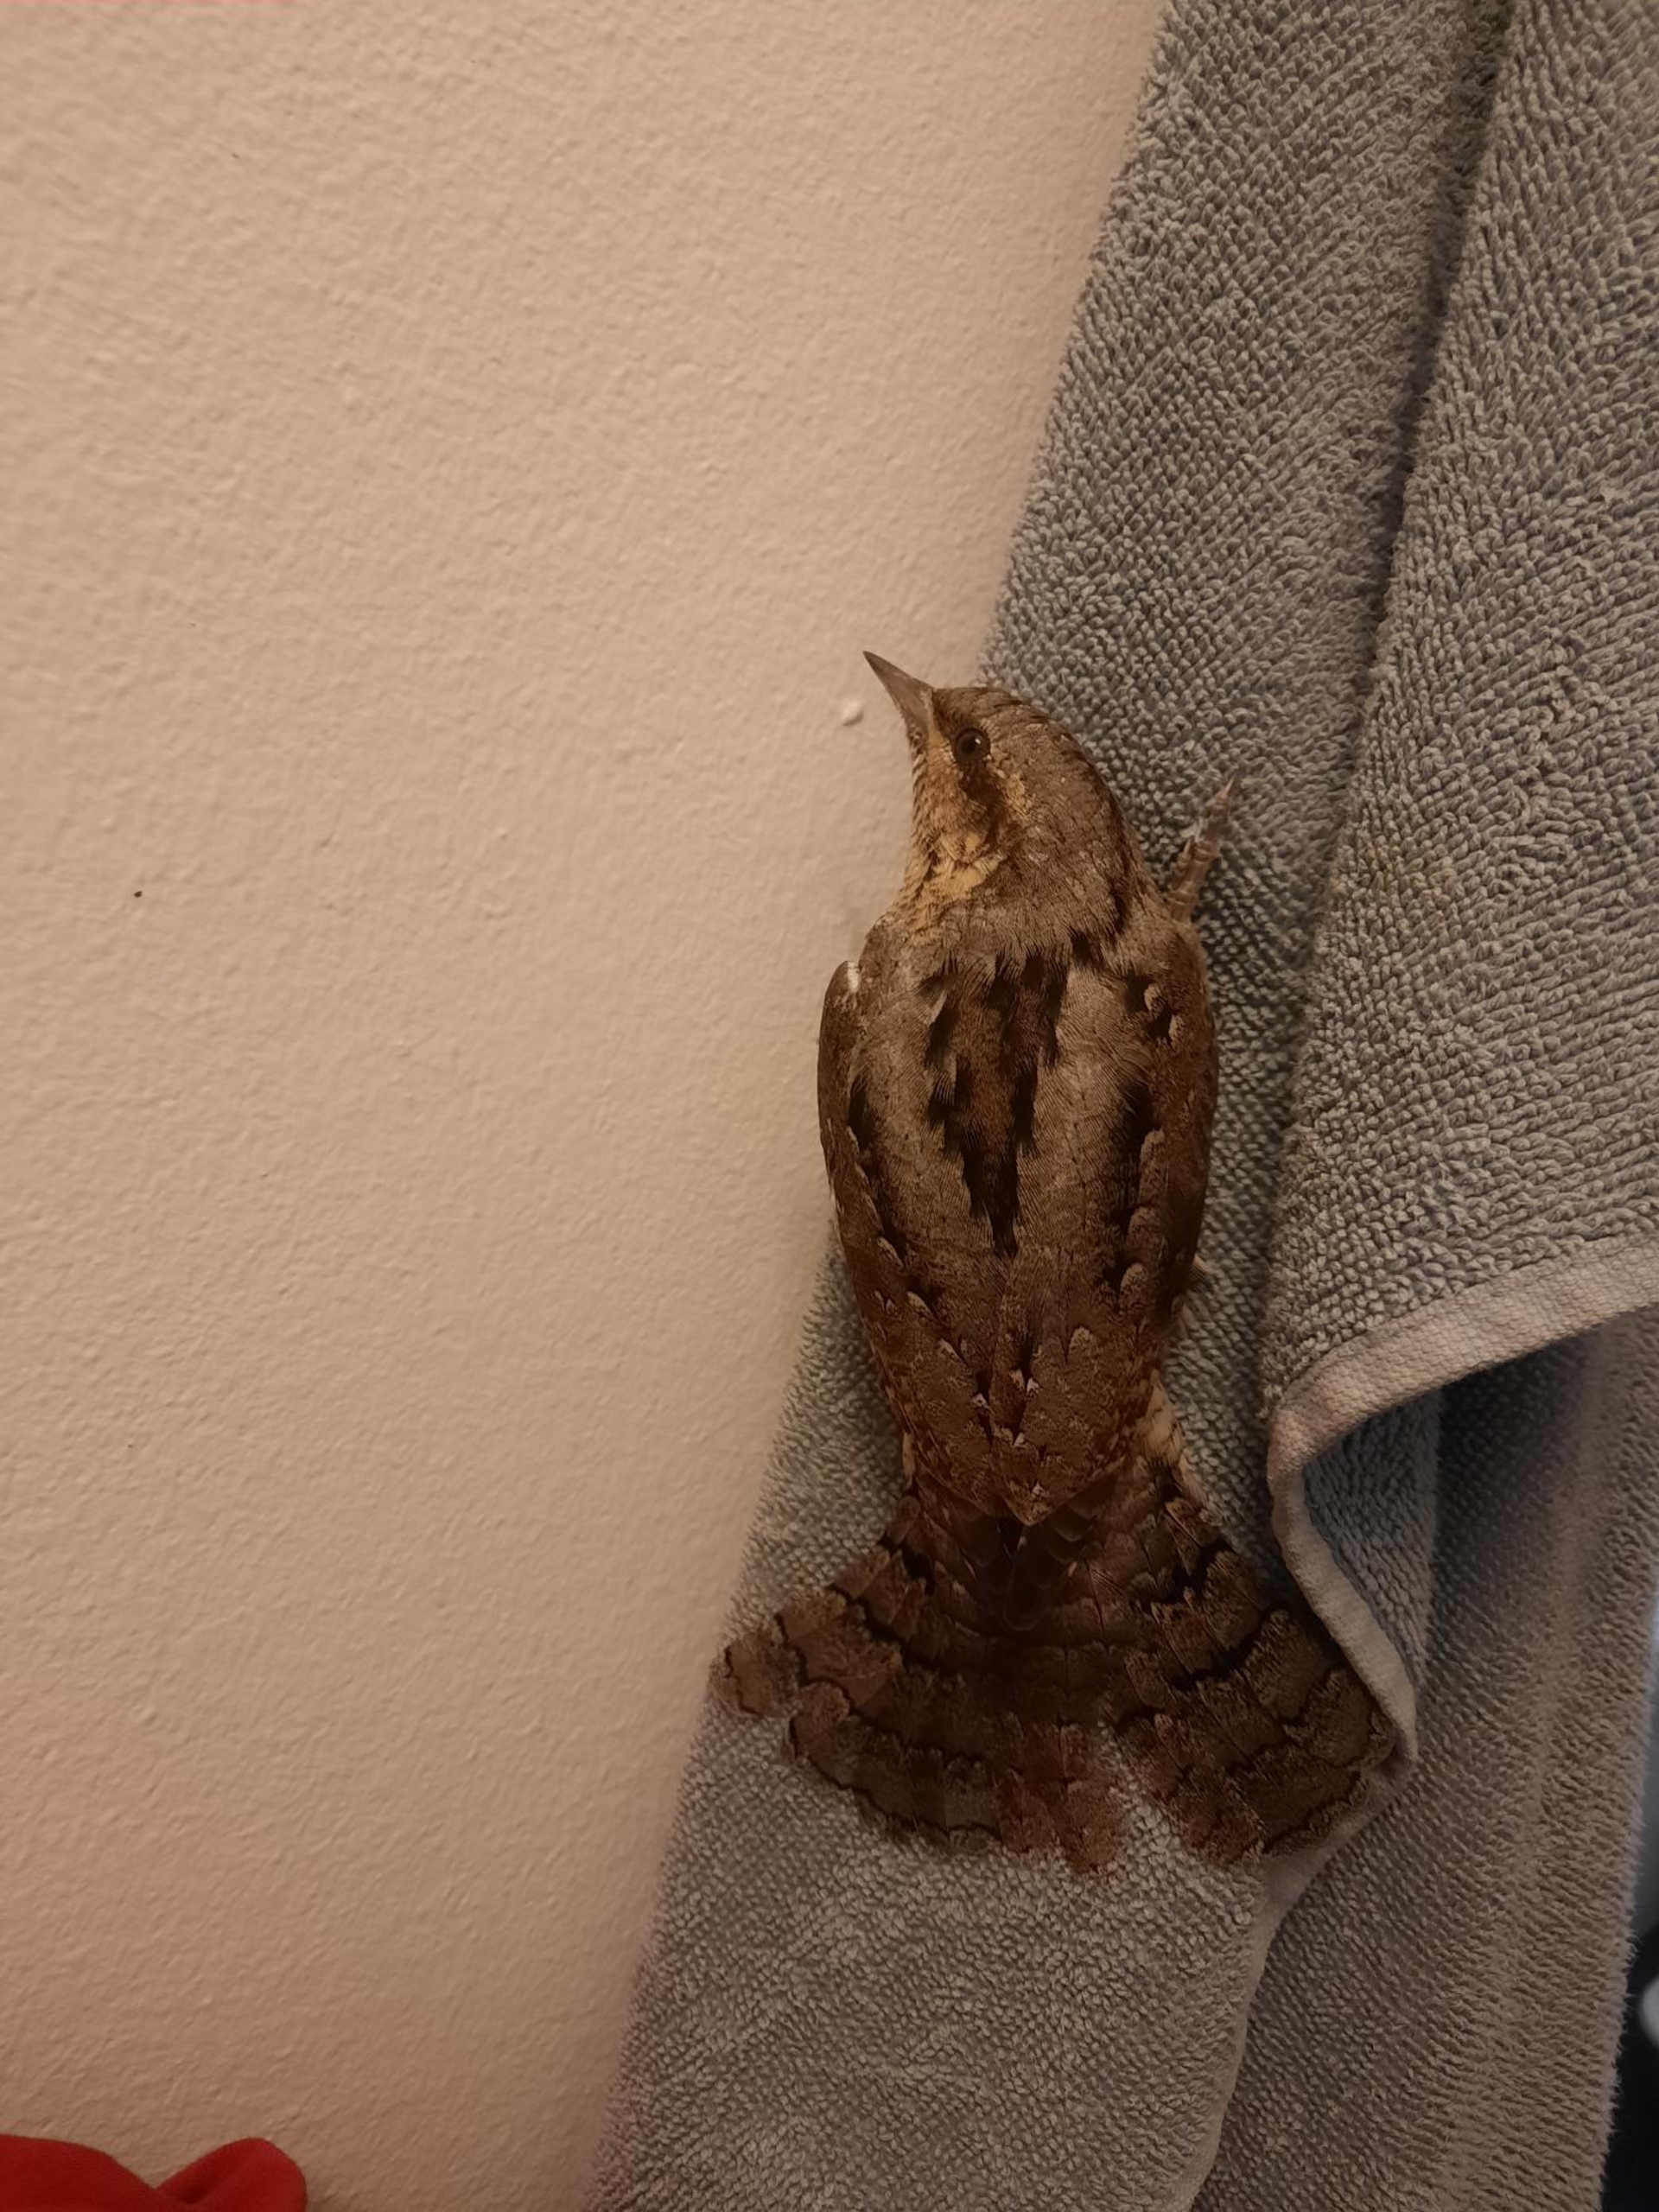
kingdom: Animalia
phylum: Chordata
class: Aves
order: Piciformes
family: Picidae
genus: Jynx
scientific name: Jynx torquilla
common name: Vendehals
